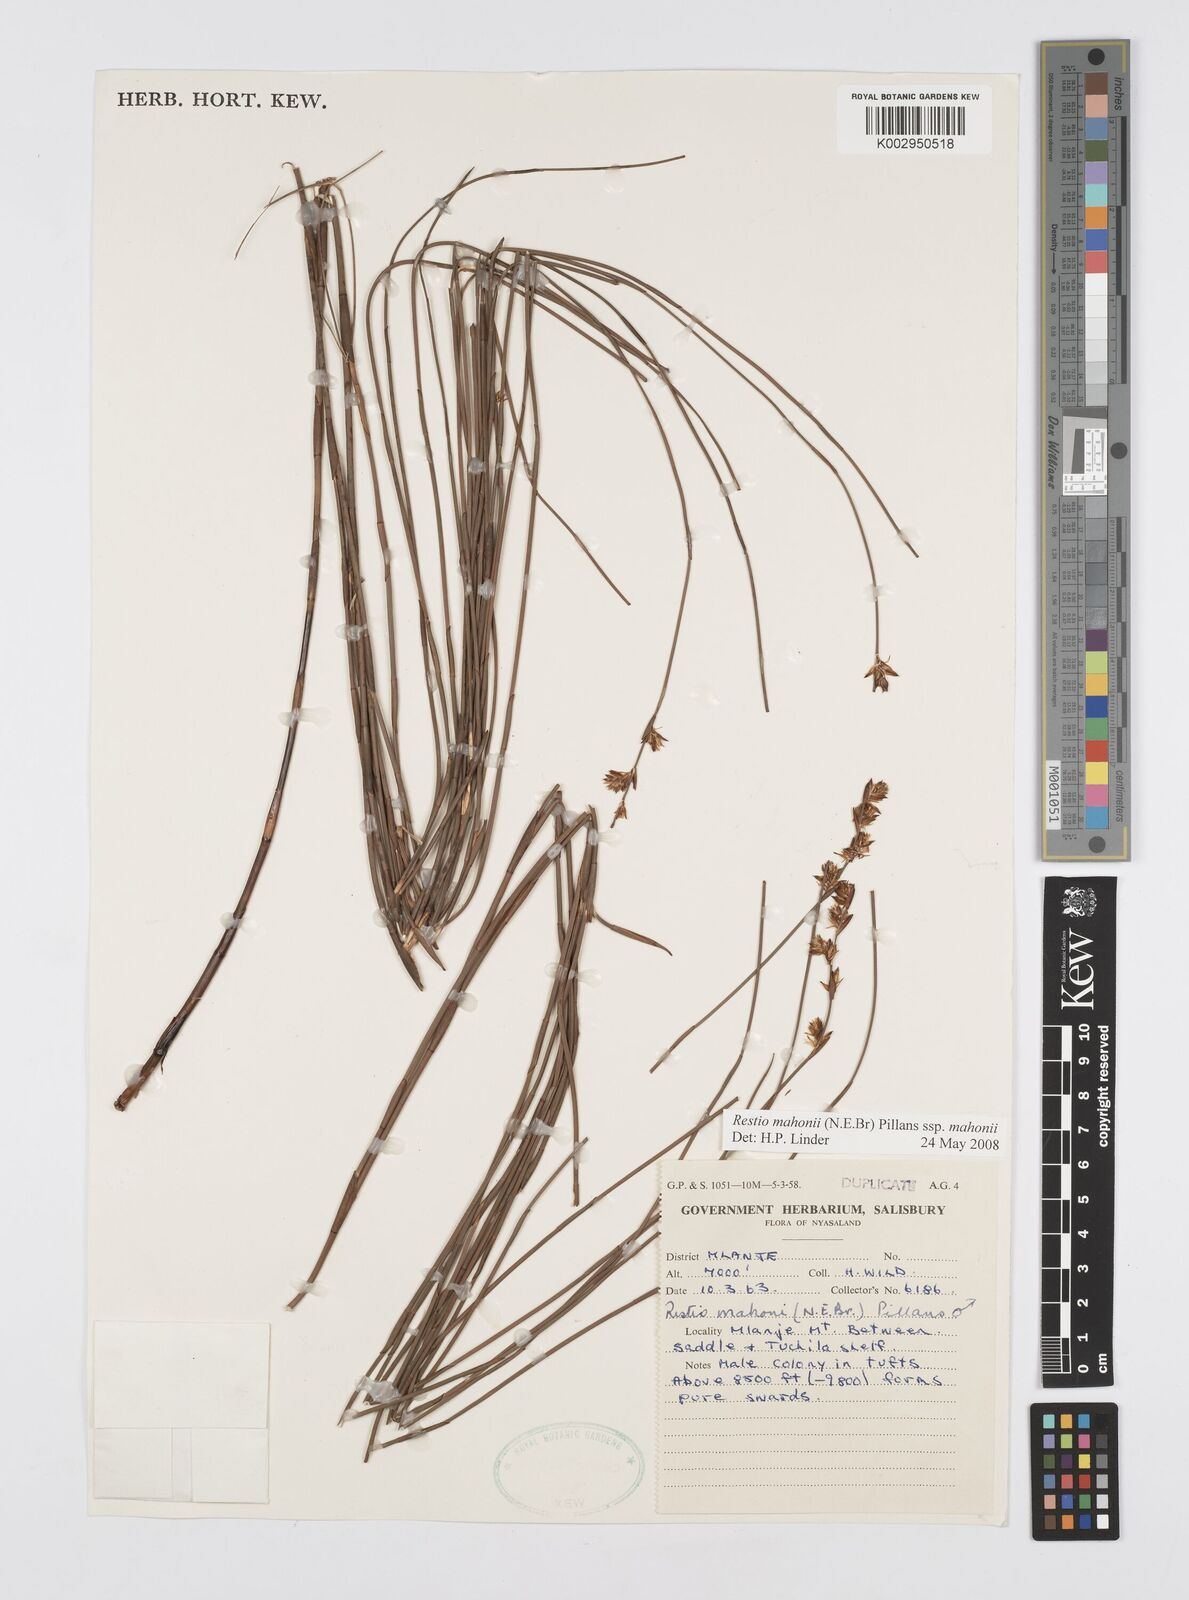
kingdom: Plantae
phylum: Tracheophyta
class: Liliopsida
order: Poales
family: Restionaceae
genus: Platycaulos
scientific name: Platycaulos mahonii
